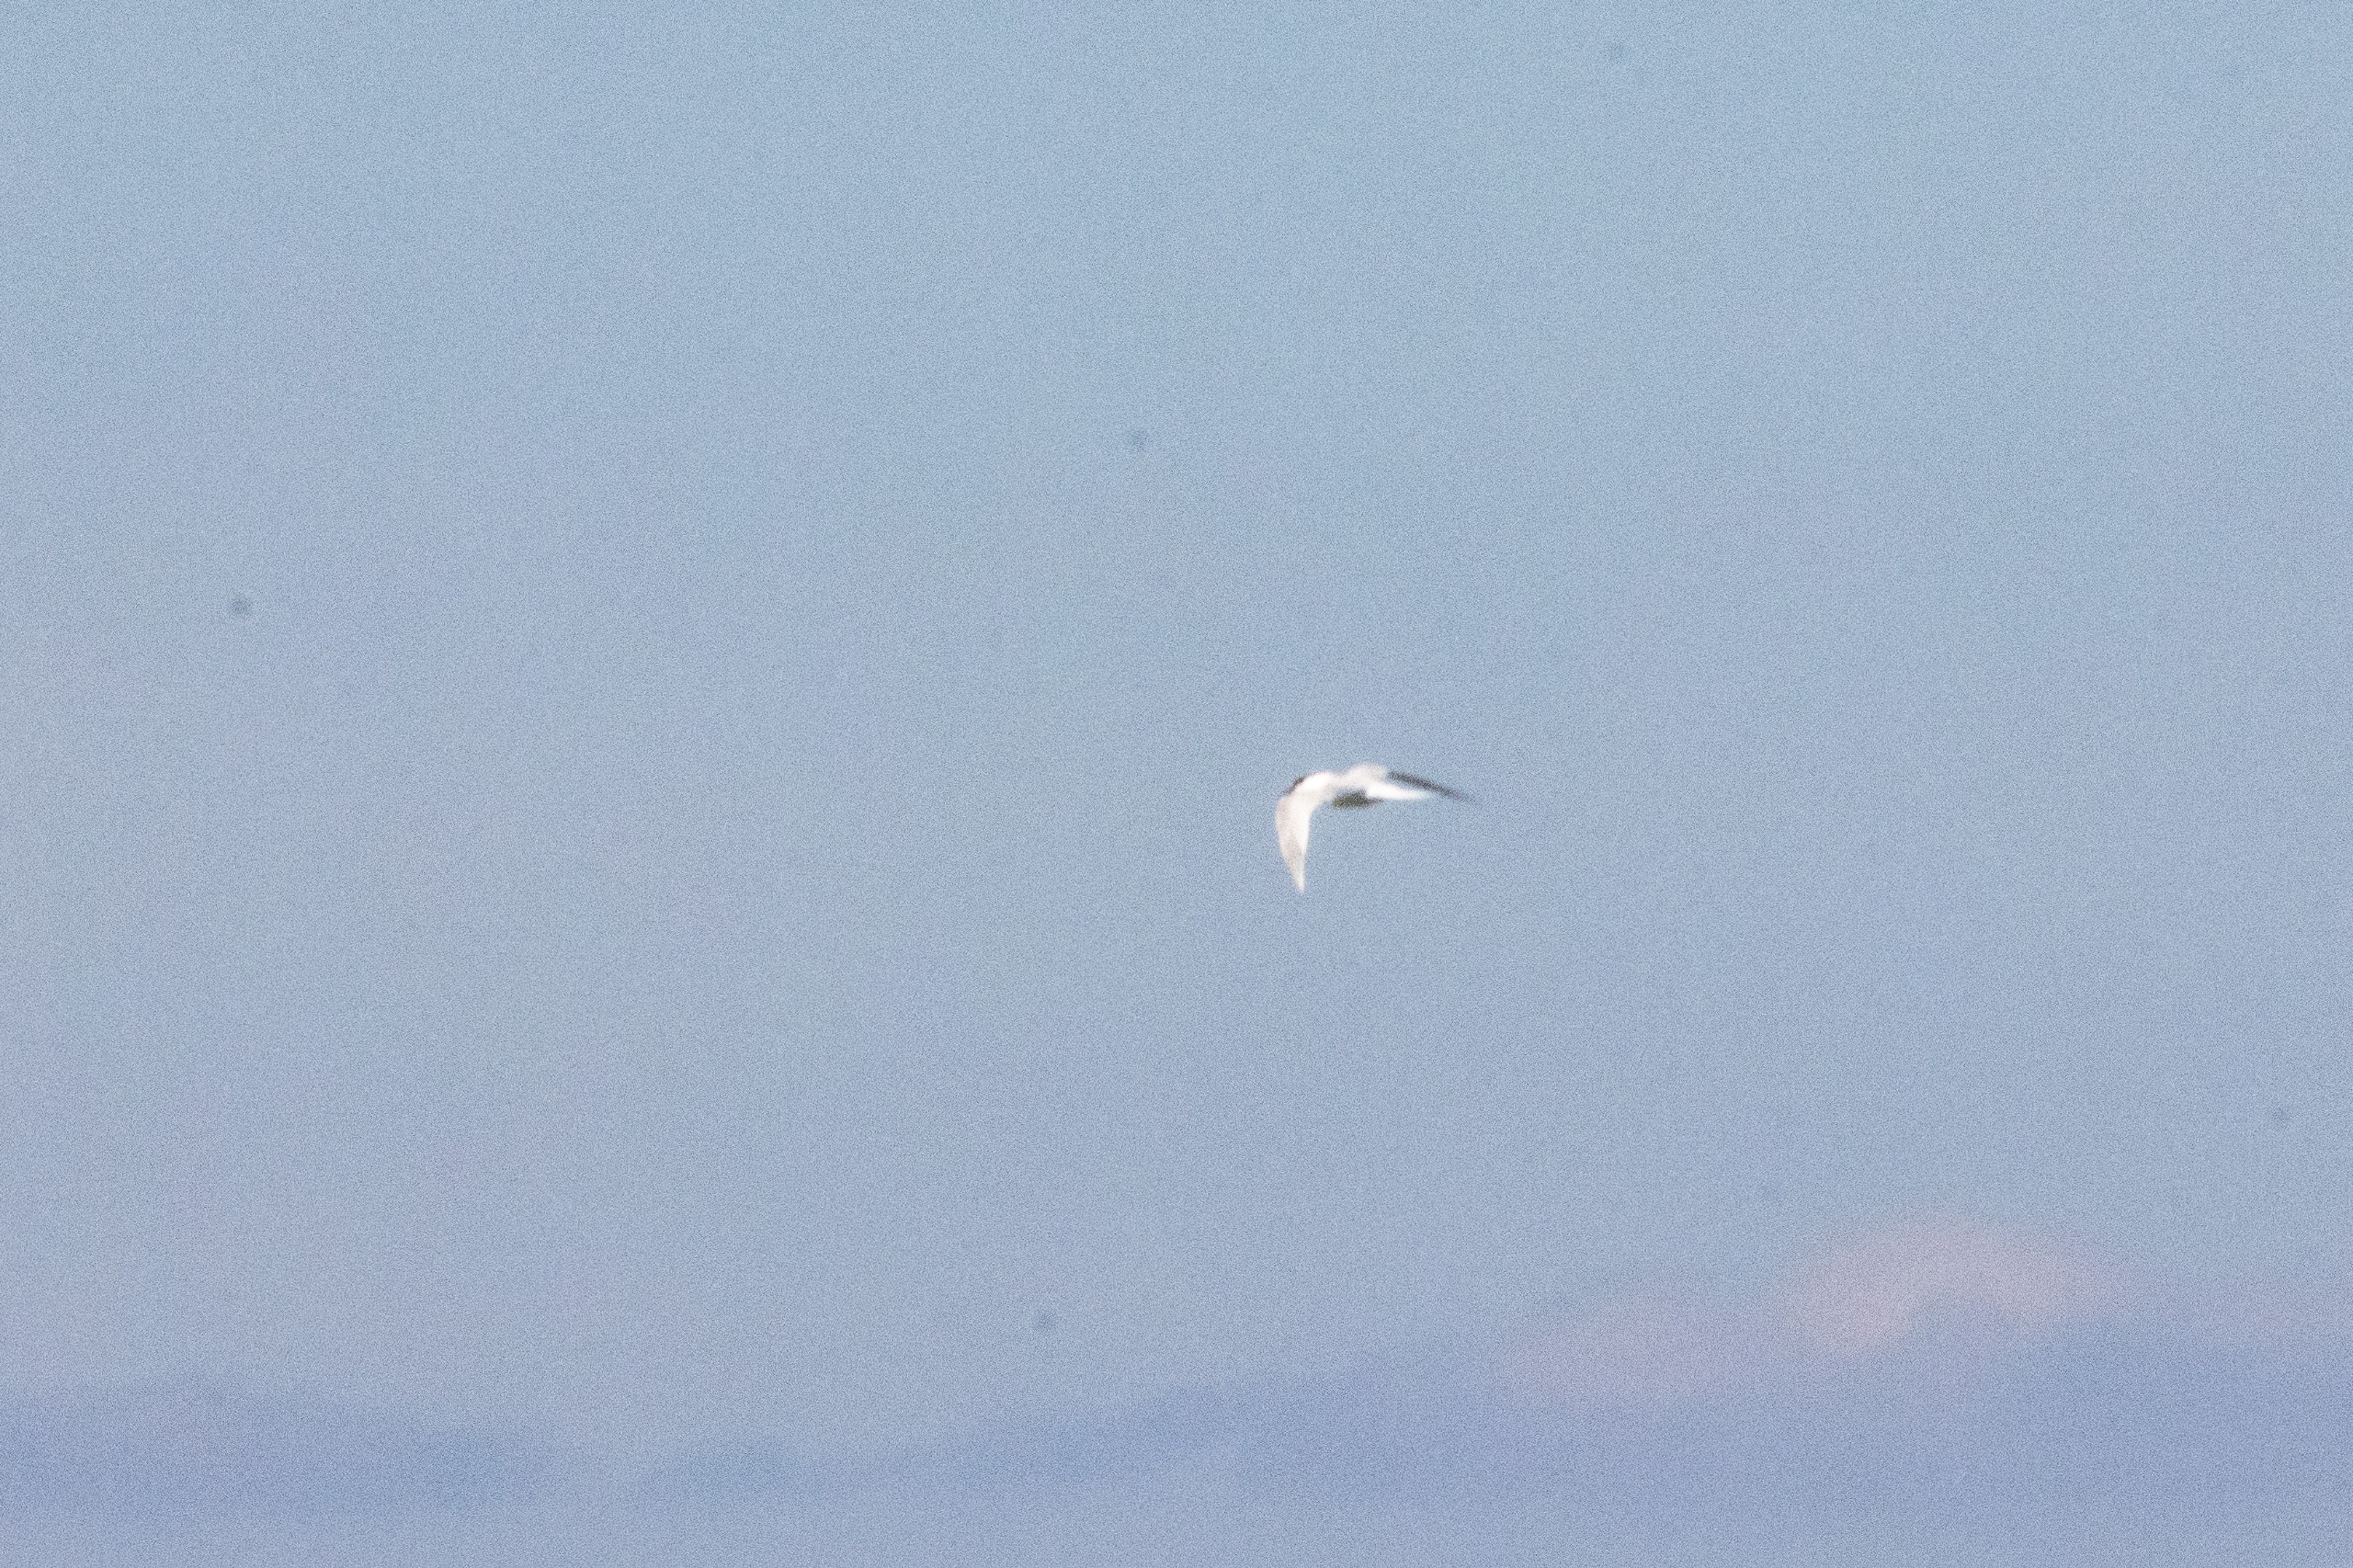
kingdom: Animalia
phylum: Chordata
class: Aves
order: Charadriiformes
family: Laridae
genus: Thalasseus
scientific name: Thalasseus sandvicensis
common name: Splitterne
